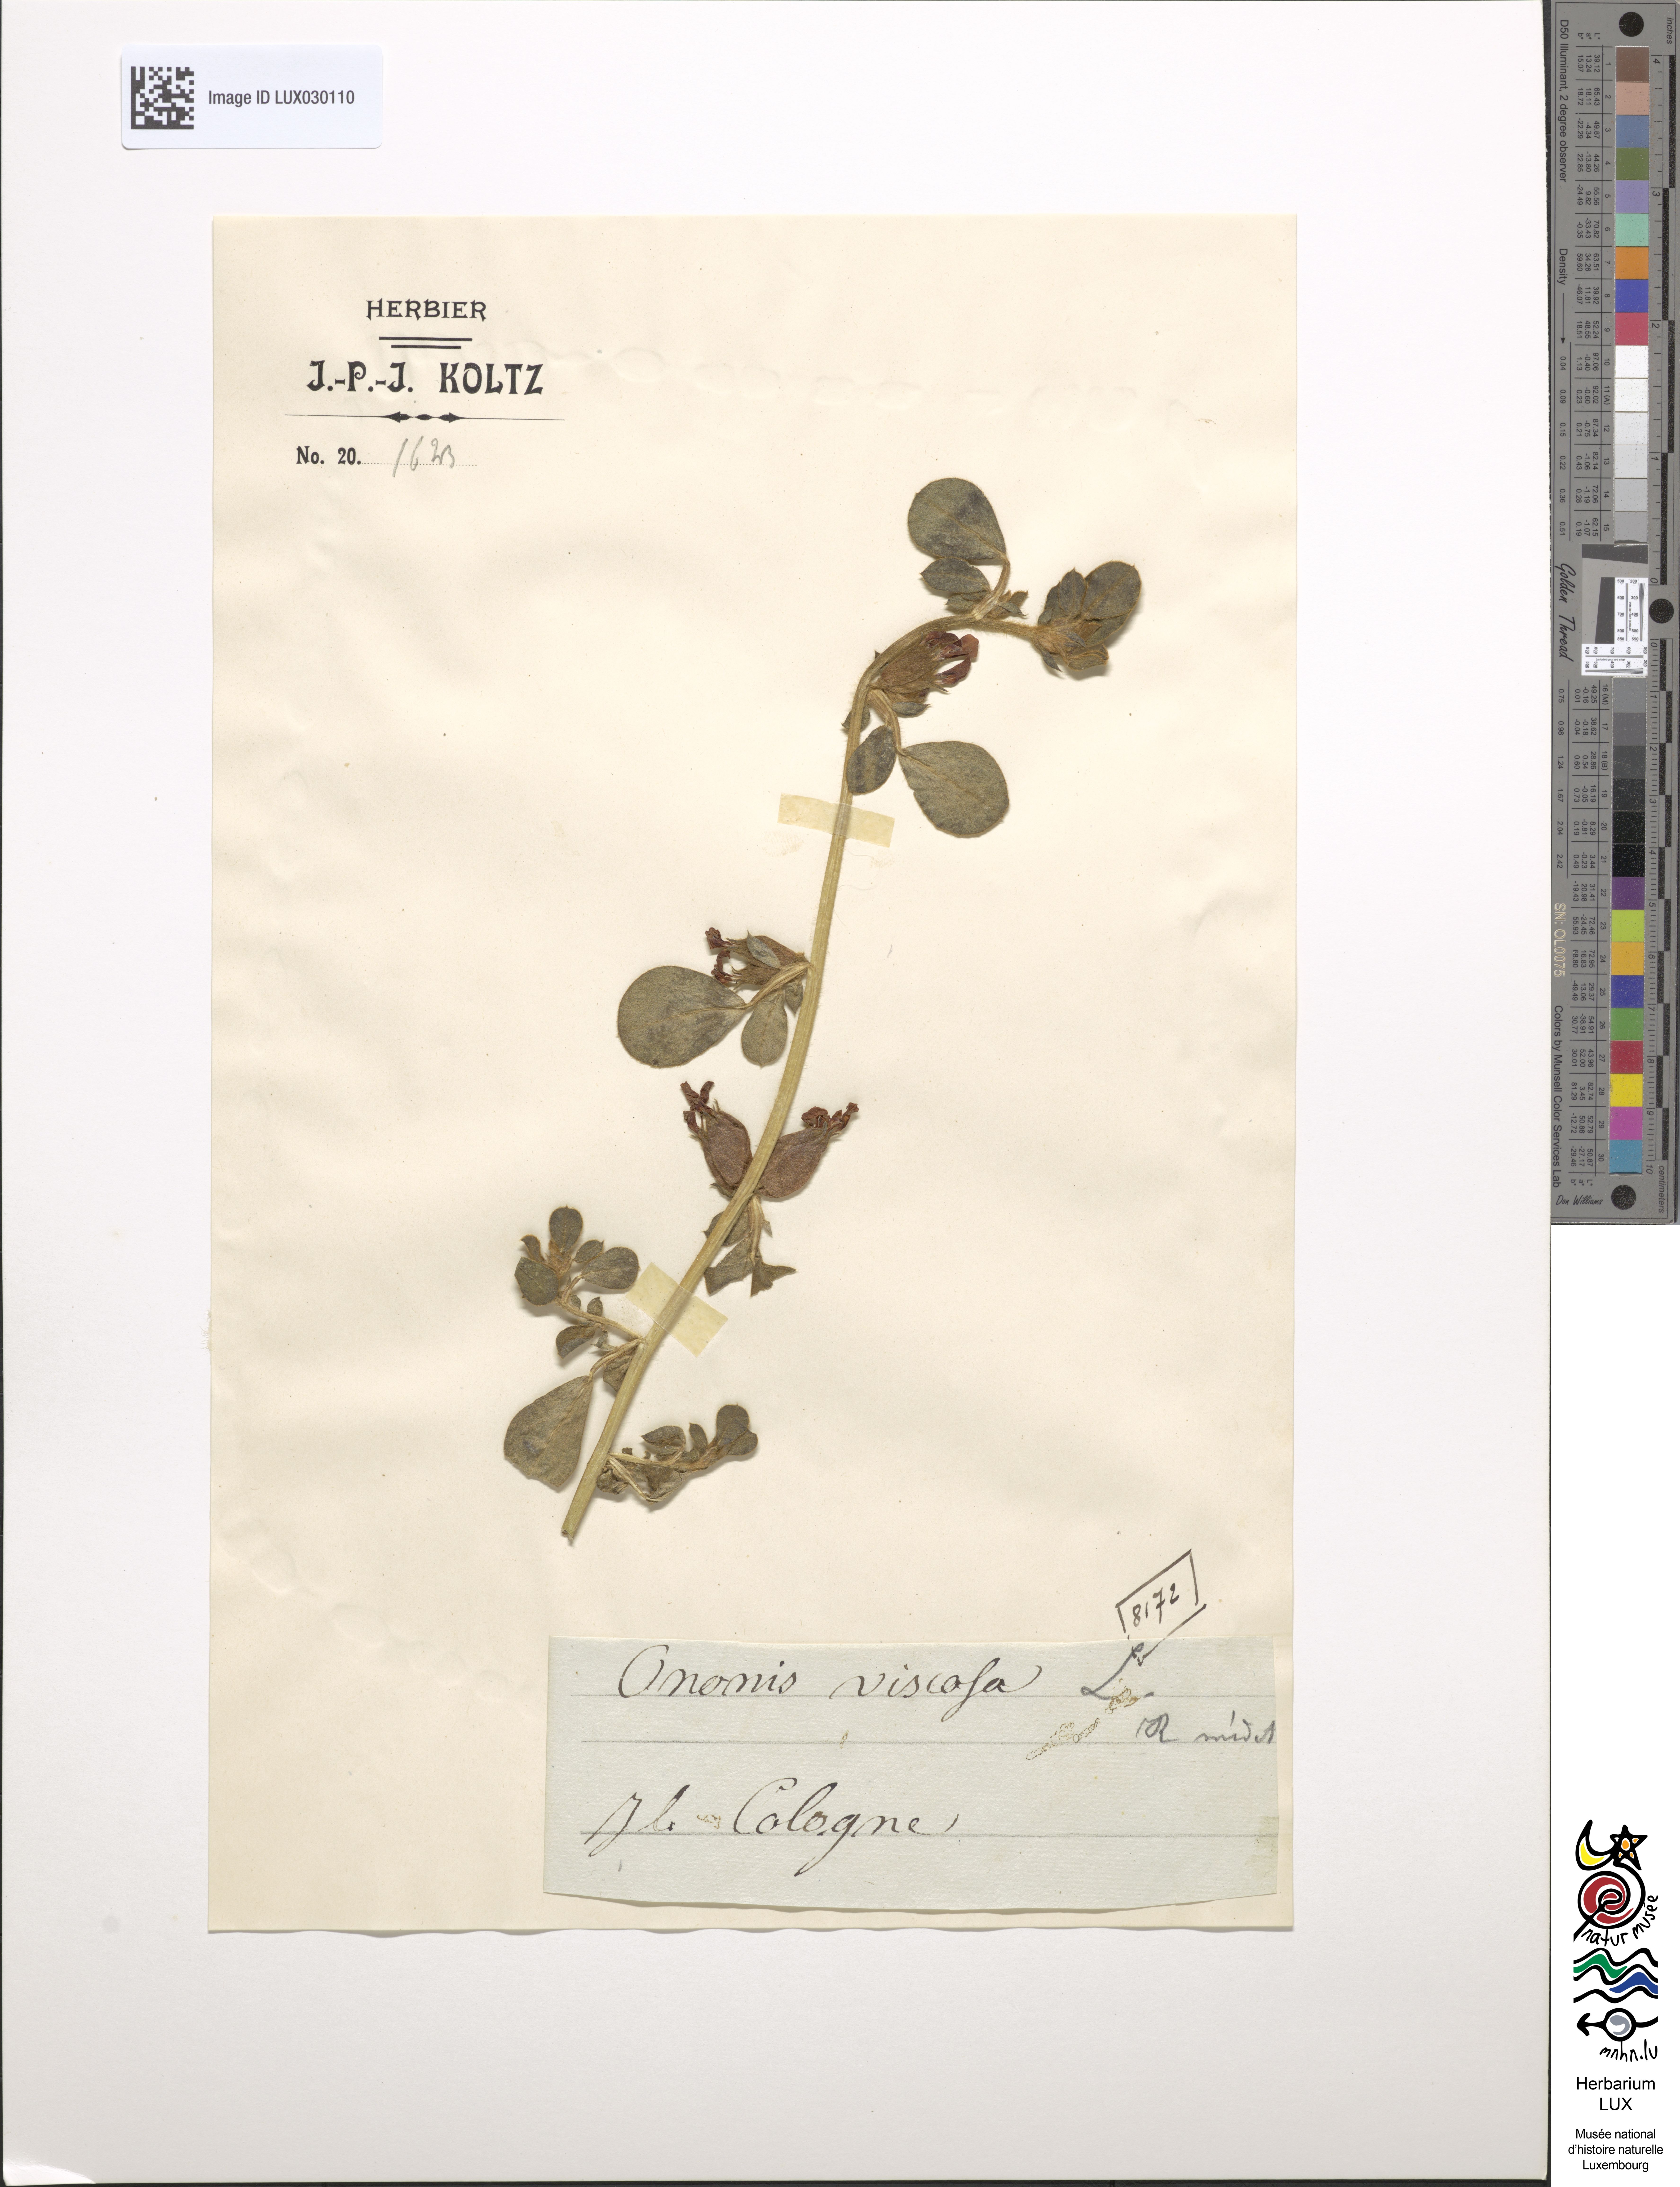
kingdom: Plantae
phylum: Tracheophyta
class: Magnoliopsida
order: Fabales
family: Fabaceae
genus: Ononis
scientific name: Ononis viscosa
